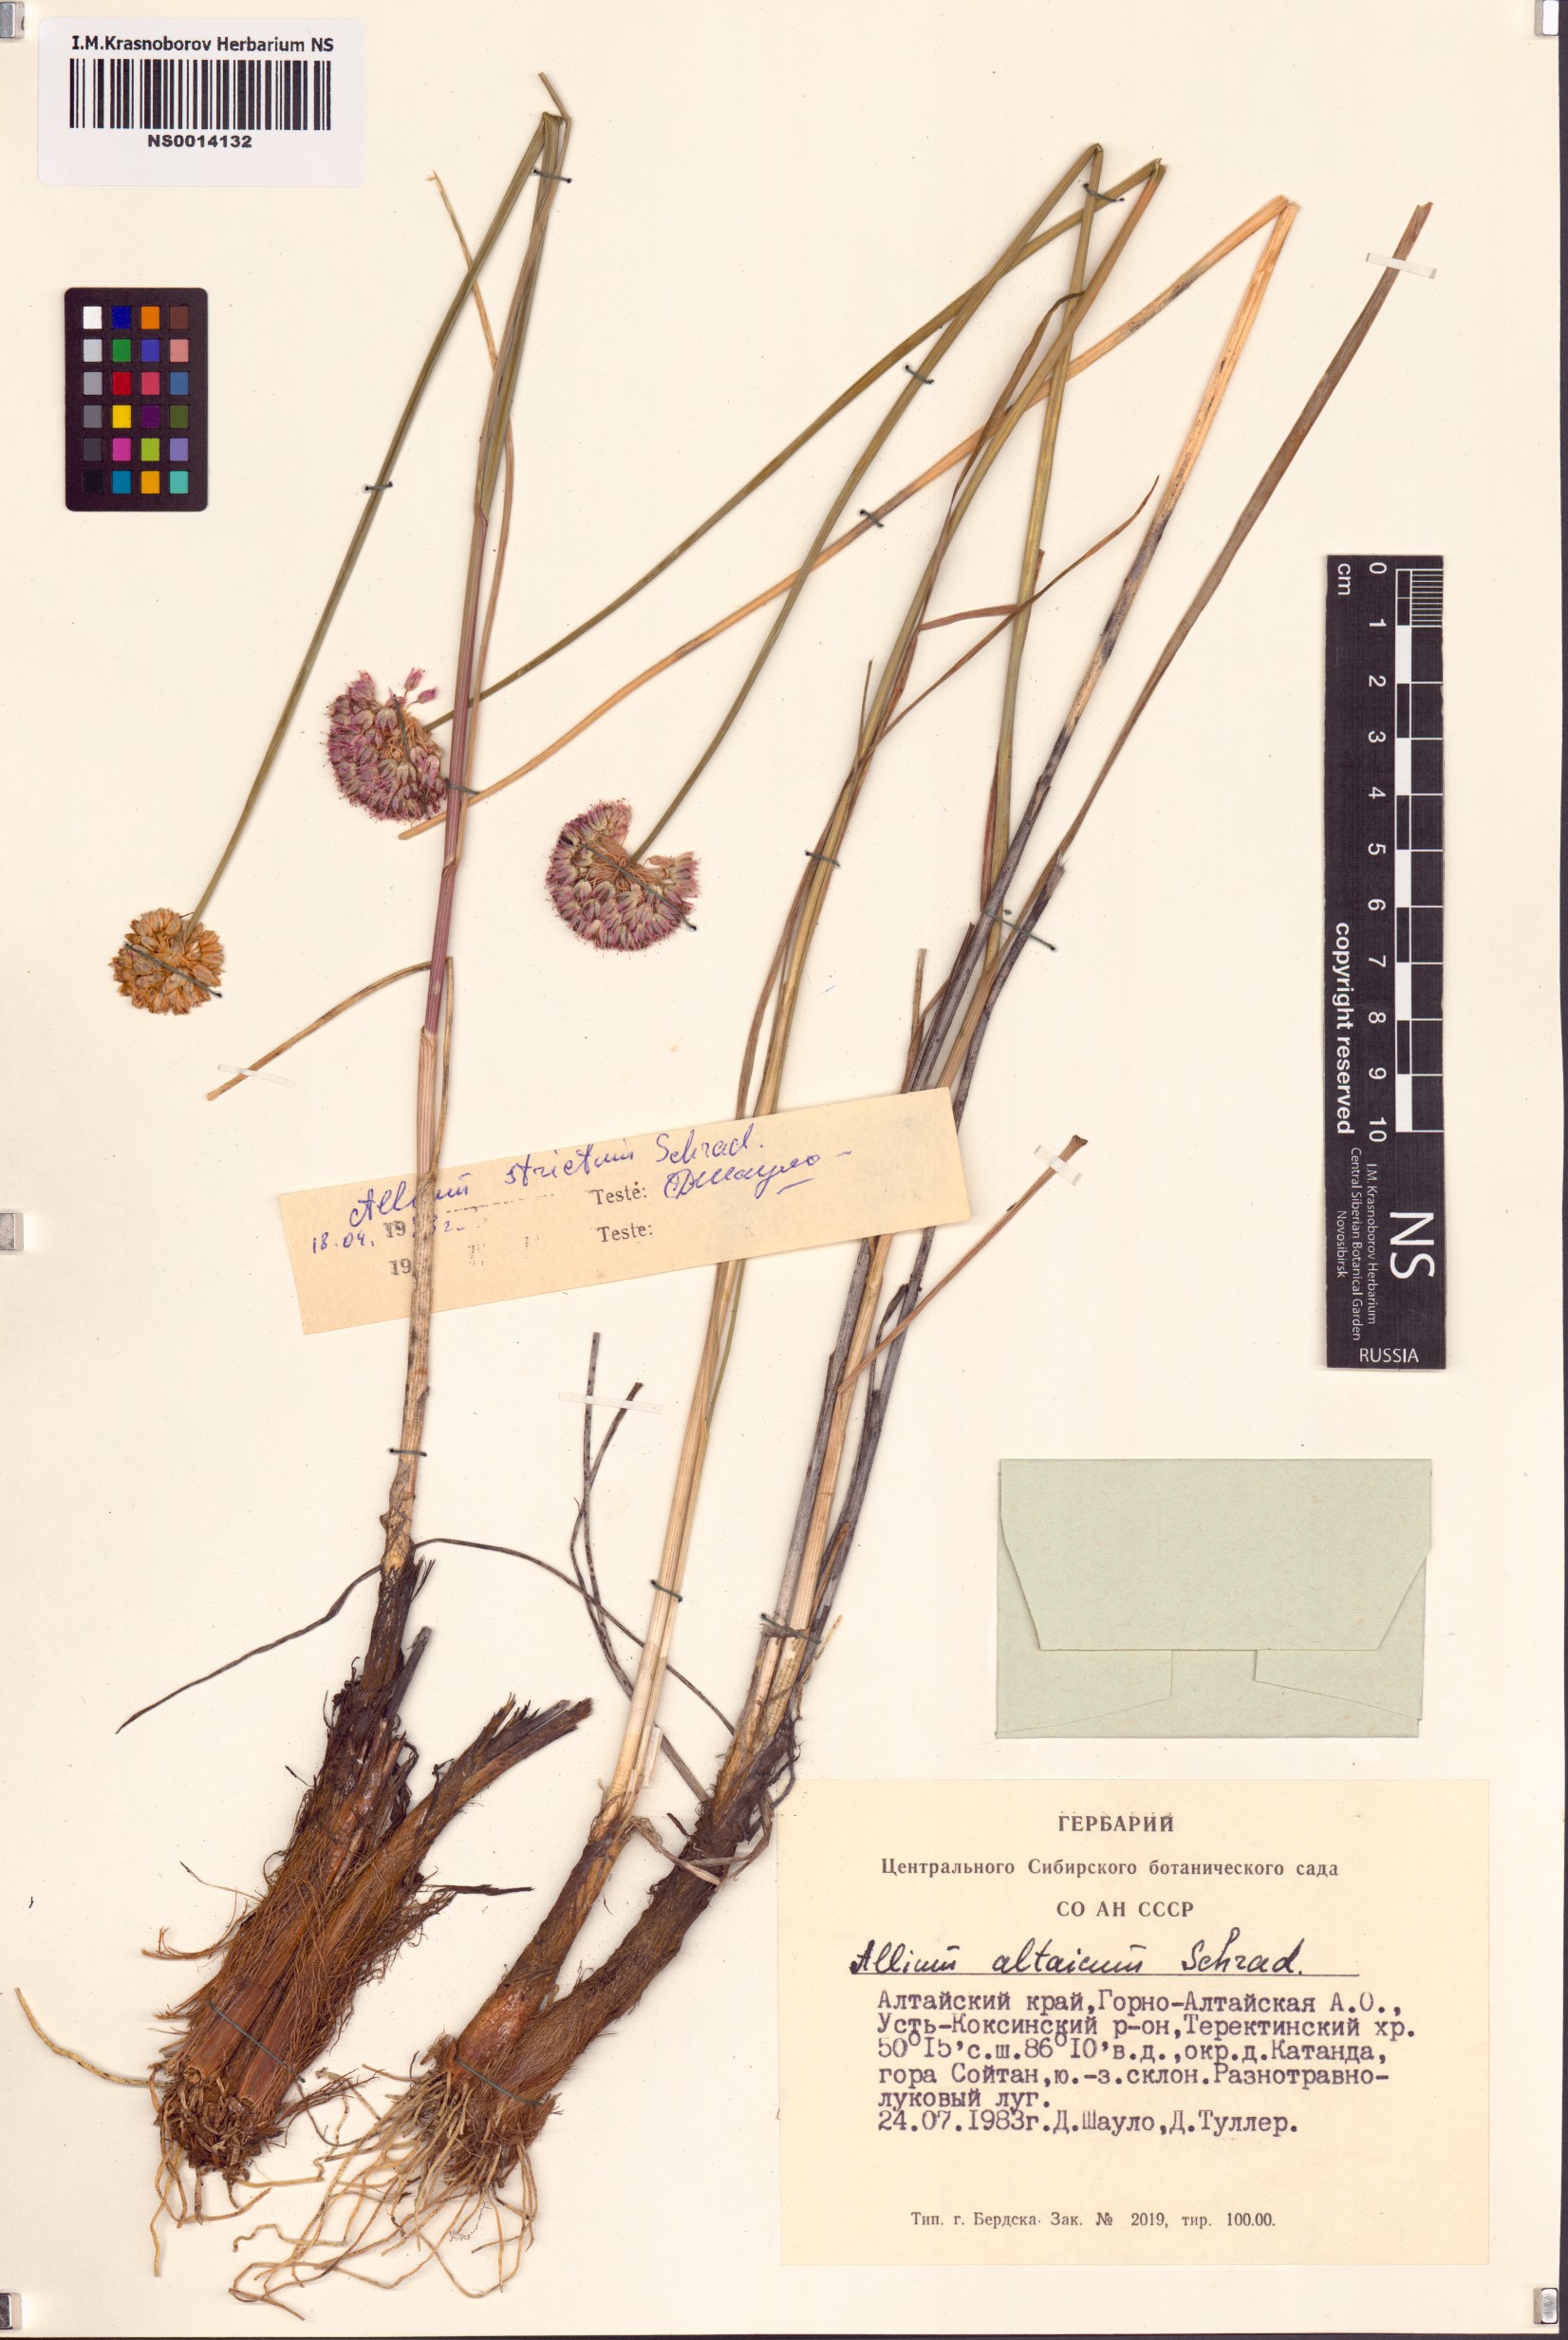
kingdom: Plantae
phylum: Tracheophyta
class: Liliopsida
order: Asparagales
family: Amaryllidaceae
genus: Allium
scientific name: Allium strictum
